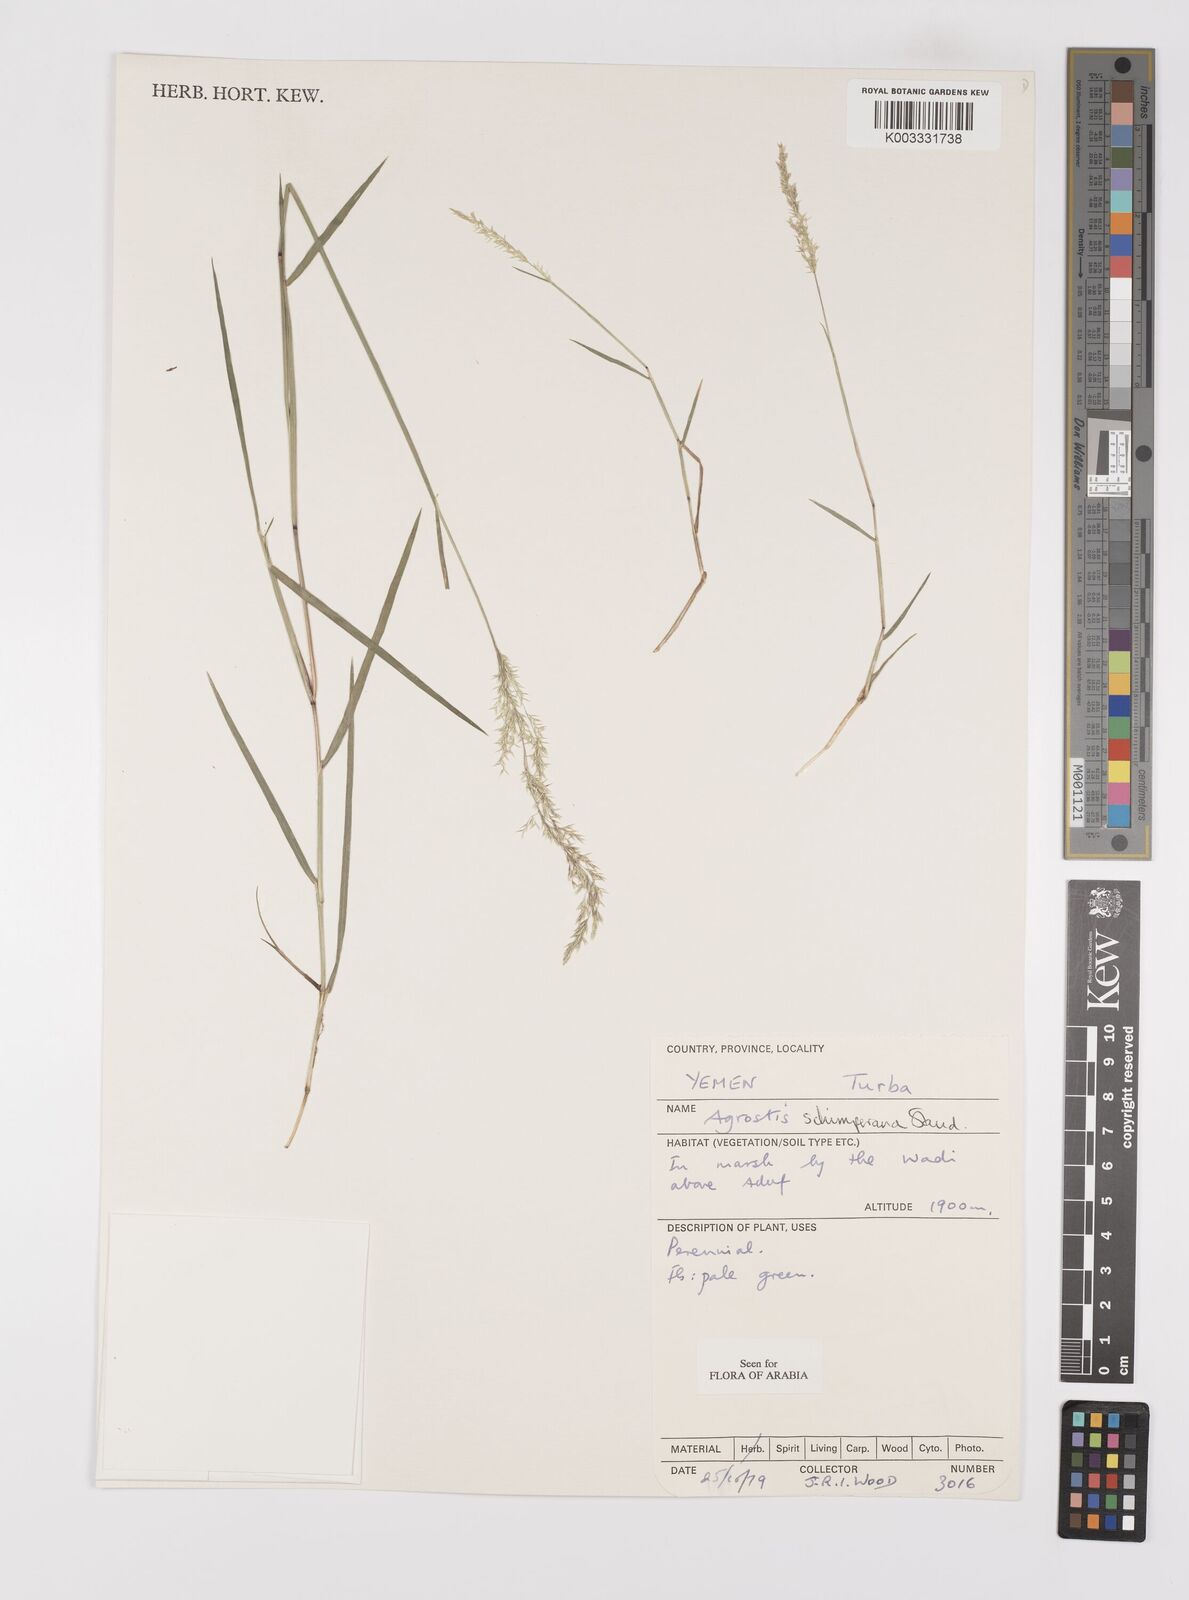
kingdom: Plantae
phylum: Tracheophyta
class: Liliopsida
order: Poales
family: Poaceae
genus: Polypogon
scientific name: Polypogon schimperianus
